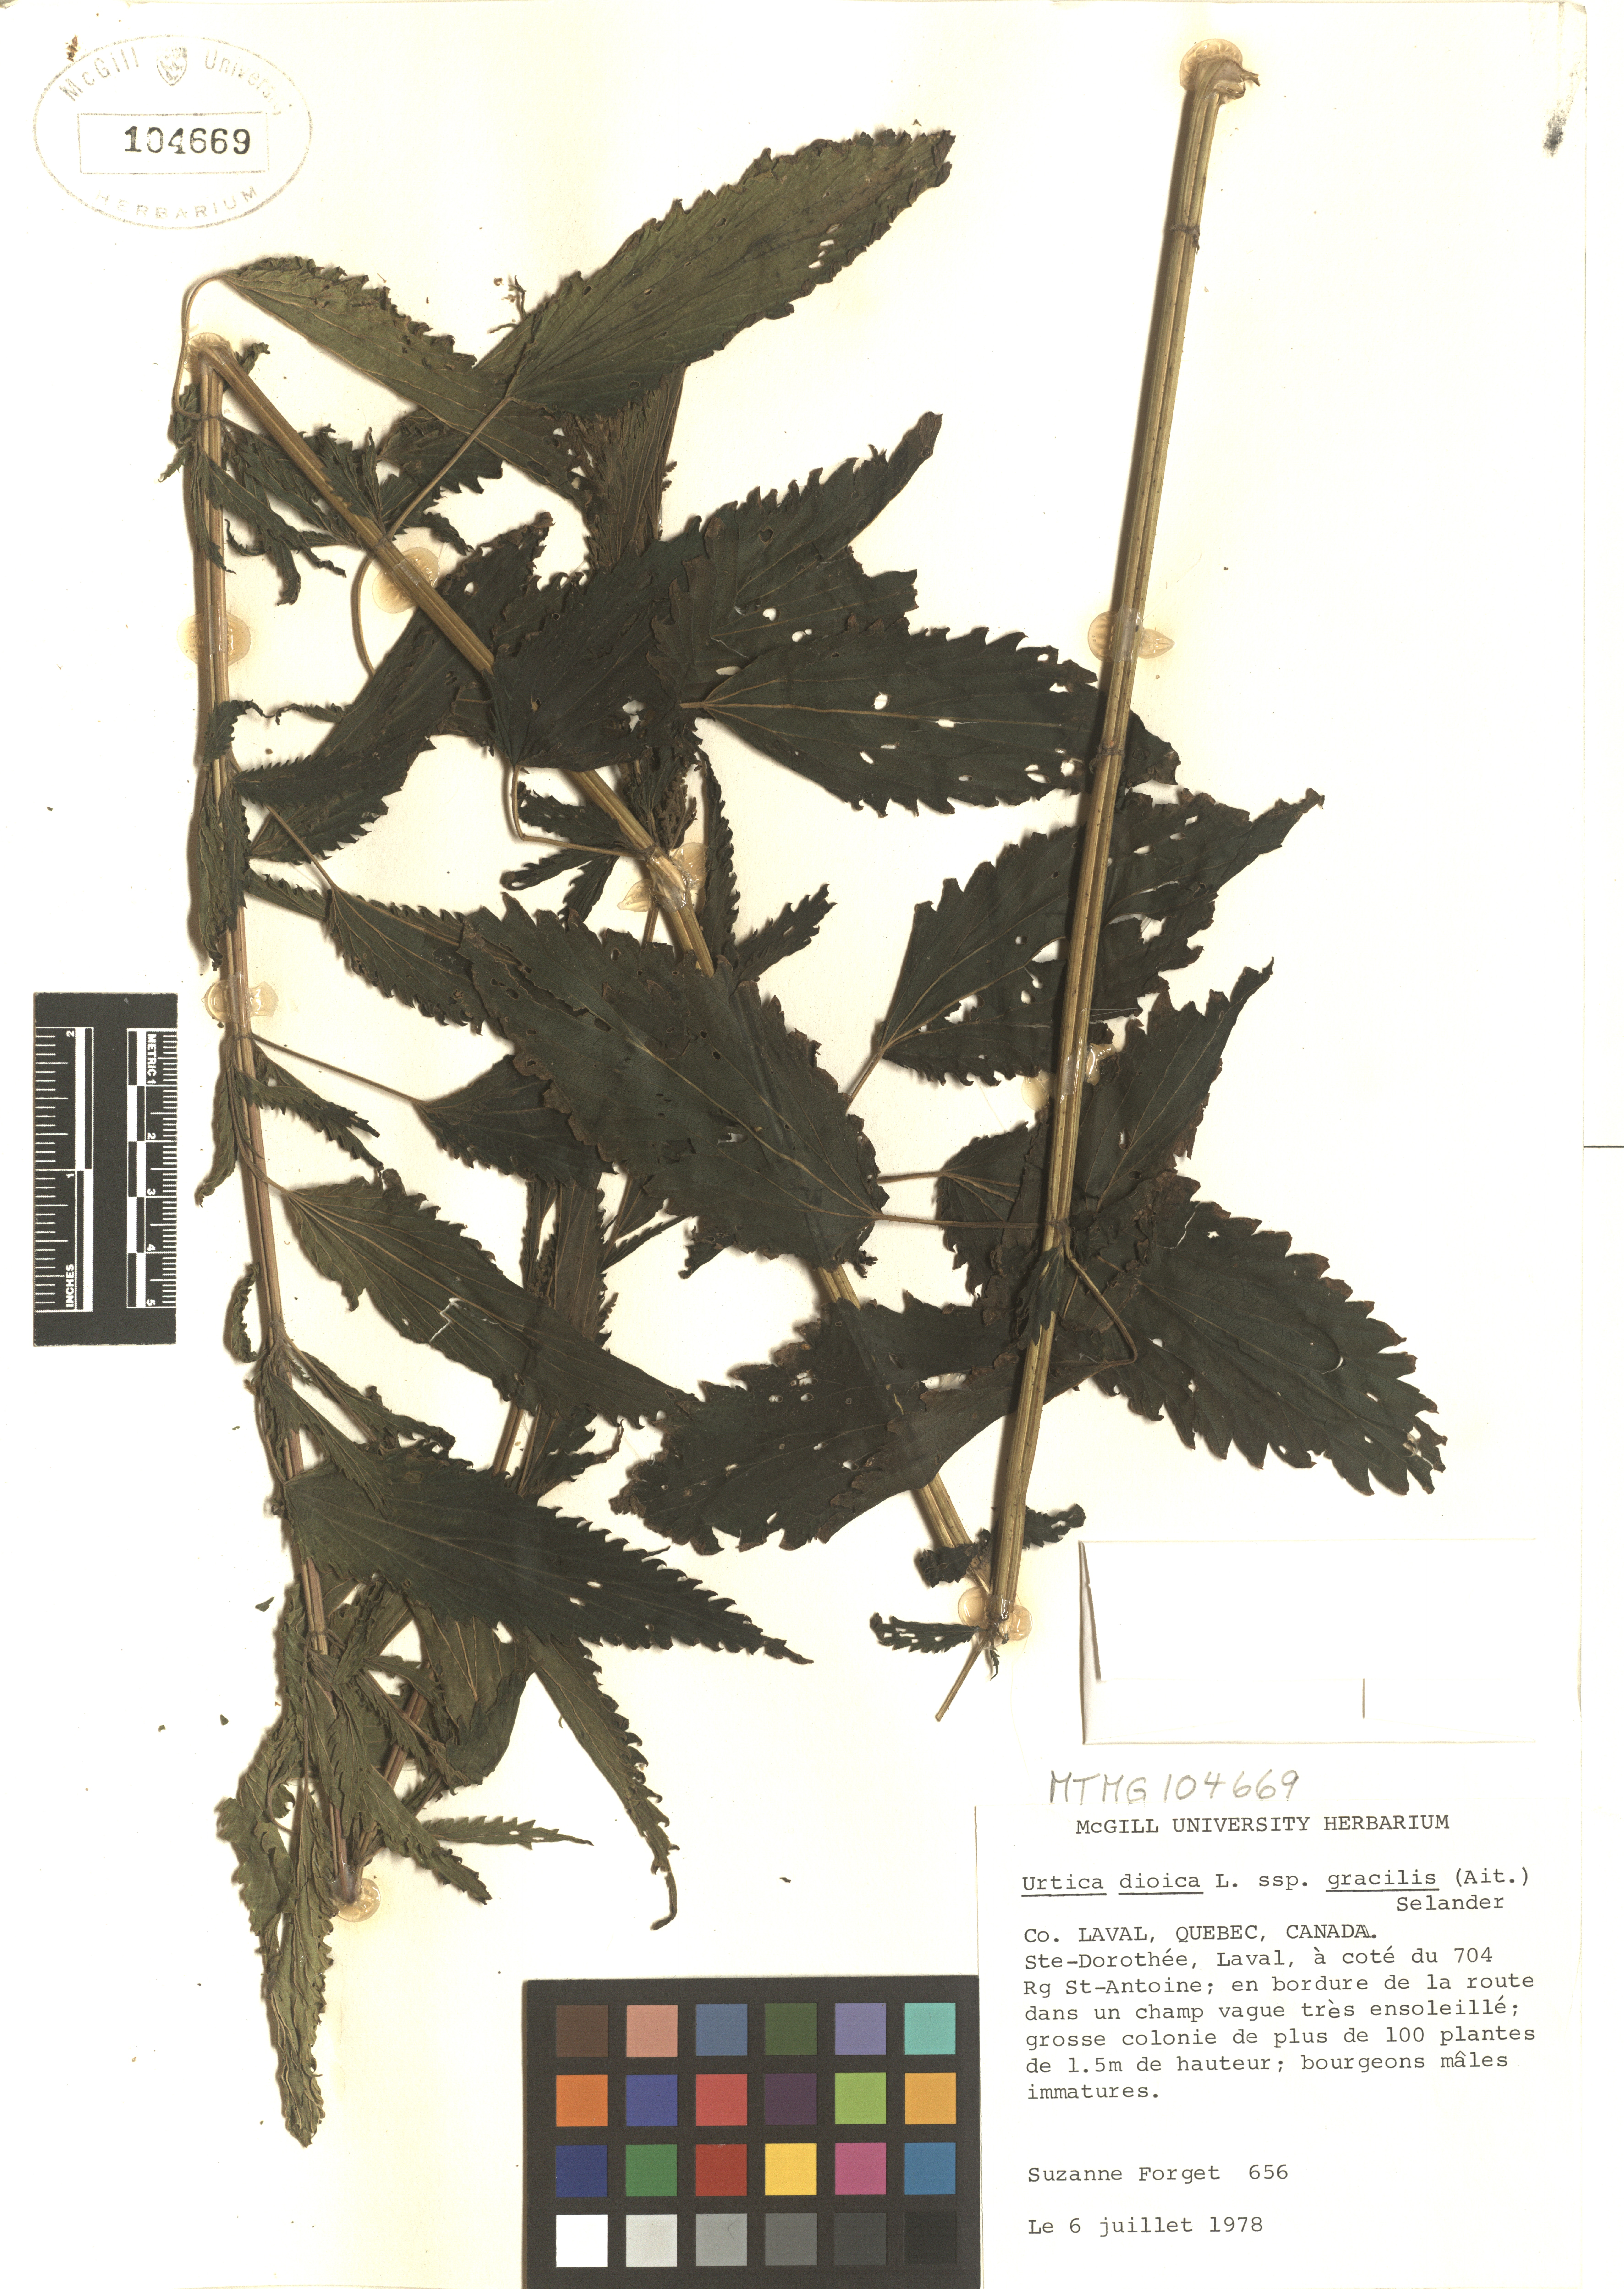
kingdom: Plantae
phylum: Tracheophyta
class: Magnoliopsida
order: Rosales
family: Urticaceae
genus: Urtica
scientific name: Urtica gracilis
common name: Slender stinging nettle
